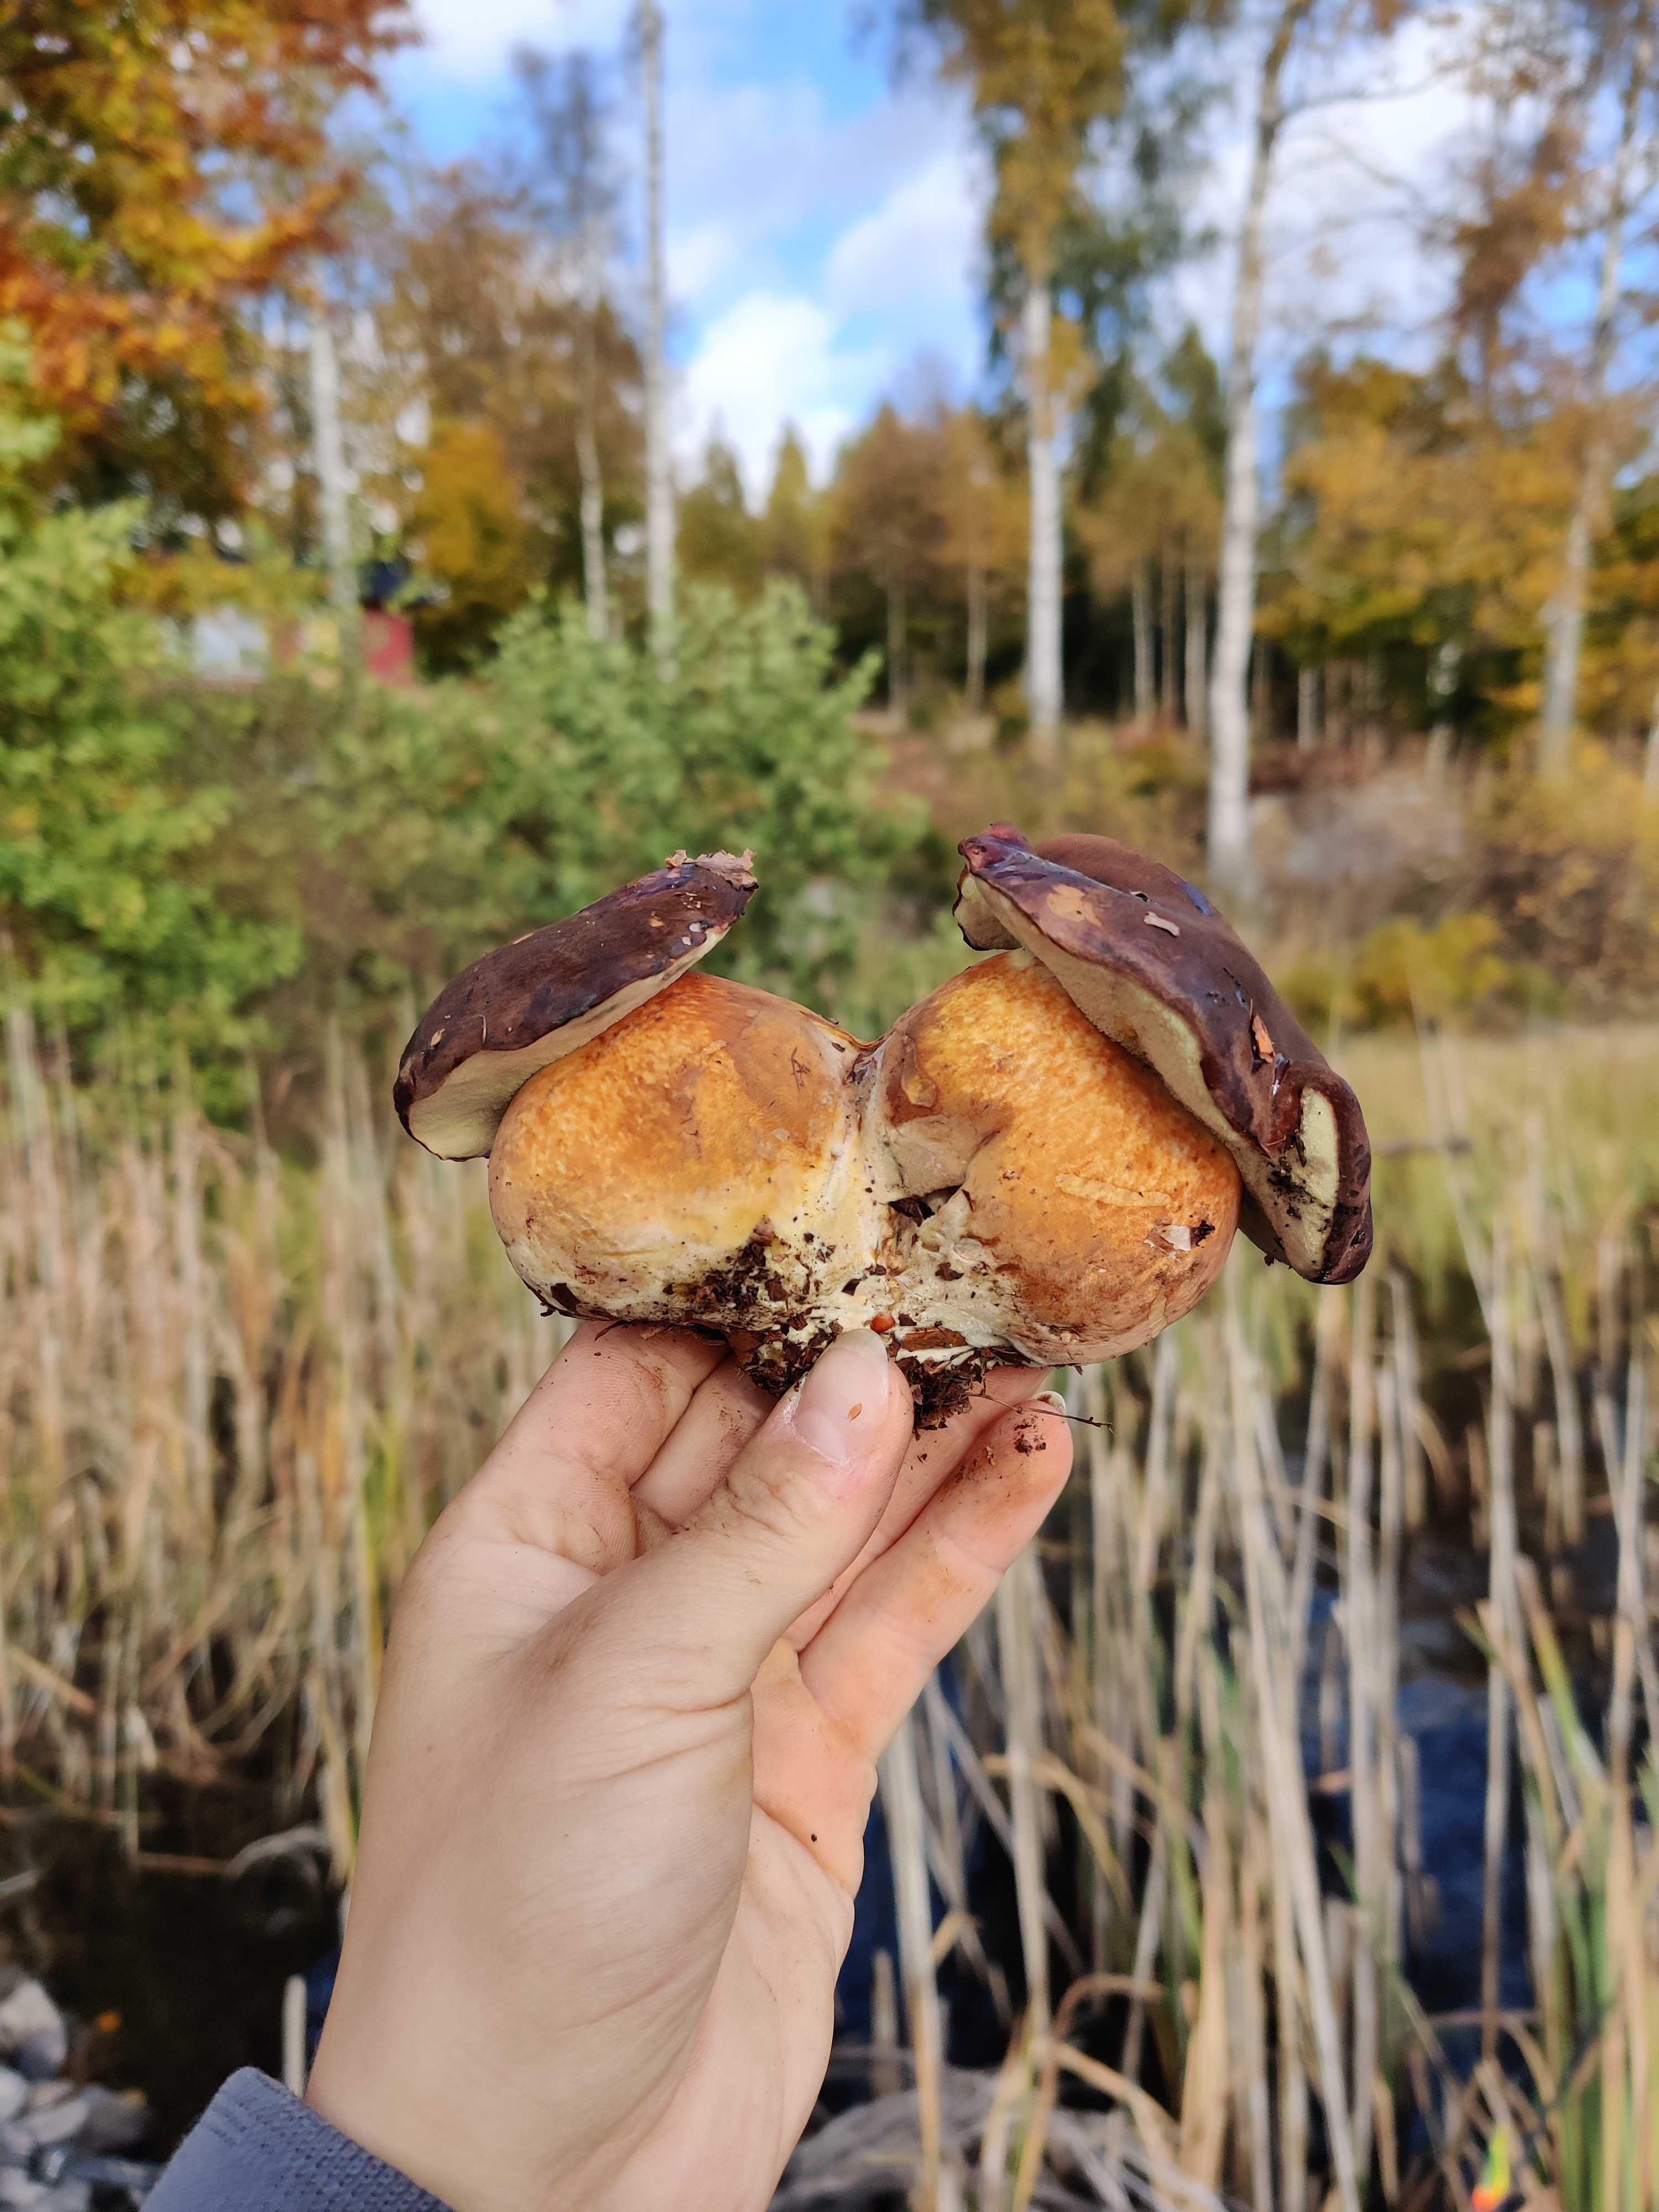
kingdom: Fungi
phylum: Basidiomycota
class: Agaricomycetes
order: Boletales
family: Boletaceae
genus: Imleria
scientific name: Imleria badia
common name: brunstokket rørhat
